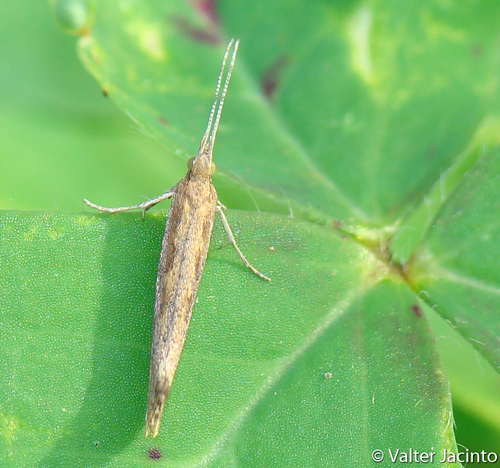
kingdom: Animalia
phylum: Arthropoda
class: Insecta
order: Lepidoptera
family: Plutellidae
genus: Plutella
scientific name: Plutella xylostella
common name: Diamond-back moth
